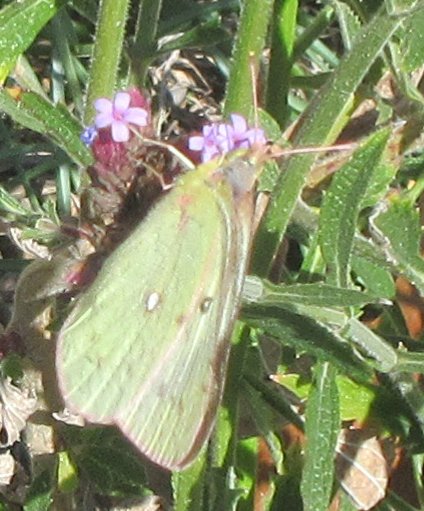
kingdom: Animalia
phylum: Arthropoda
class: Insecta
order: Lepidoptera
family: Pieridae
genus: Colias
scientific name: Colias philodice
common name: Clouded Sulphur
